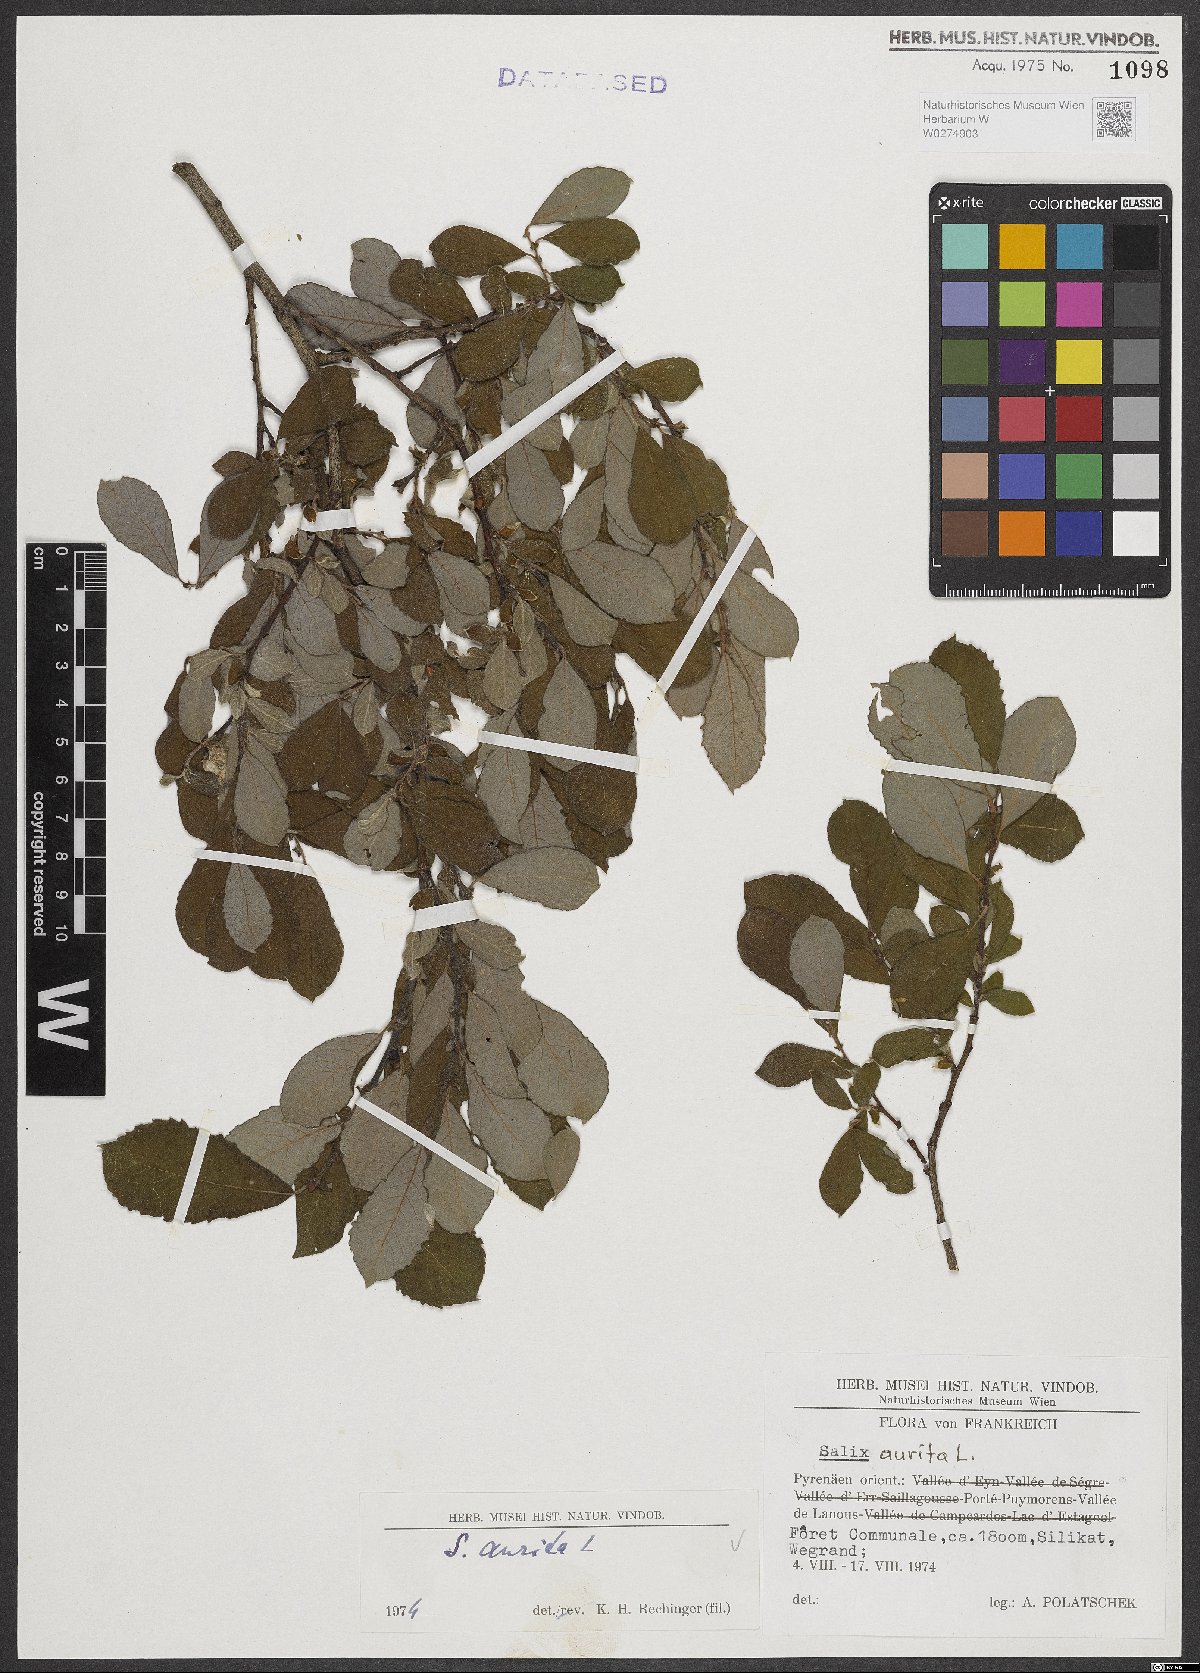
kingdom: Plantae
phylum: Tracheophyta
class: Magnoliopsida
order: Malpighiales
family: Salicaceae
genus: Salix
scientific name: Salix aurita
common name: Eared willow
